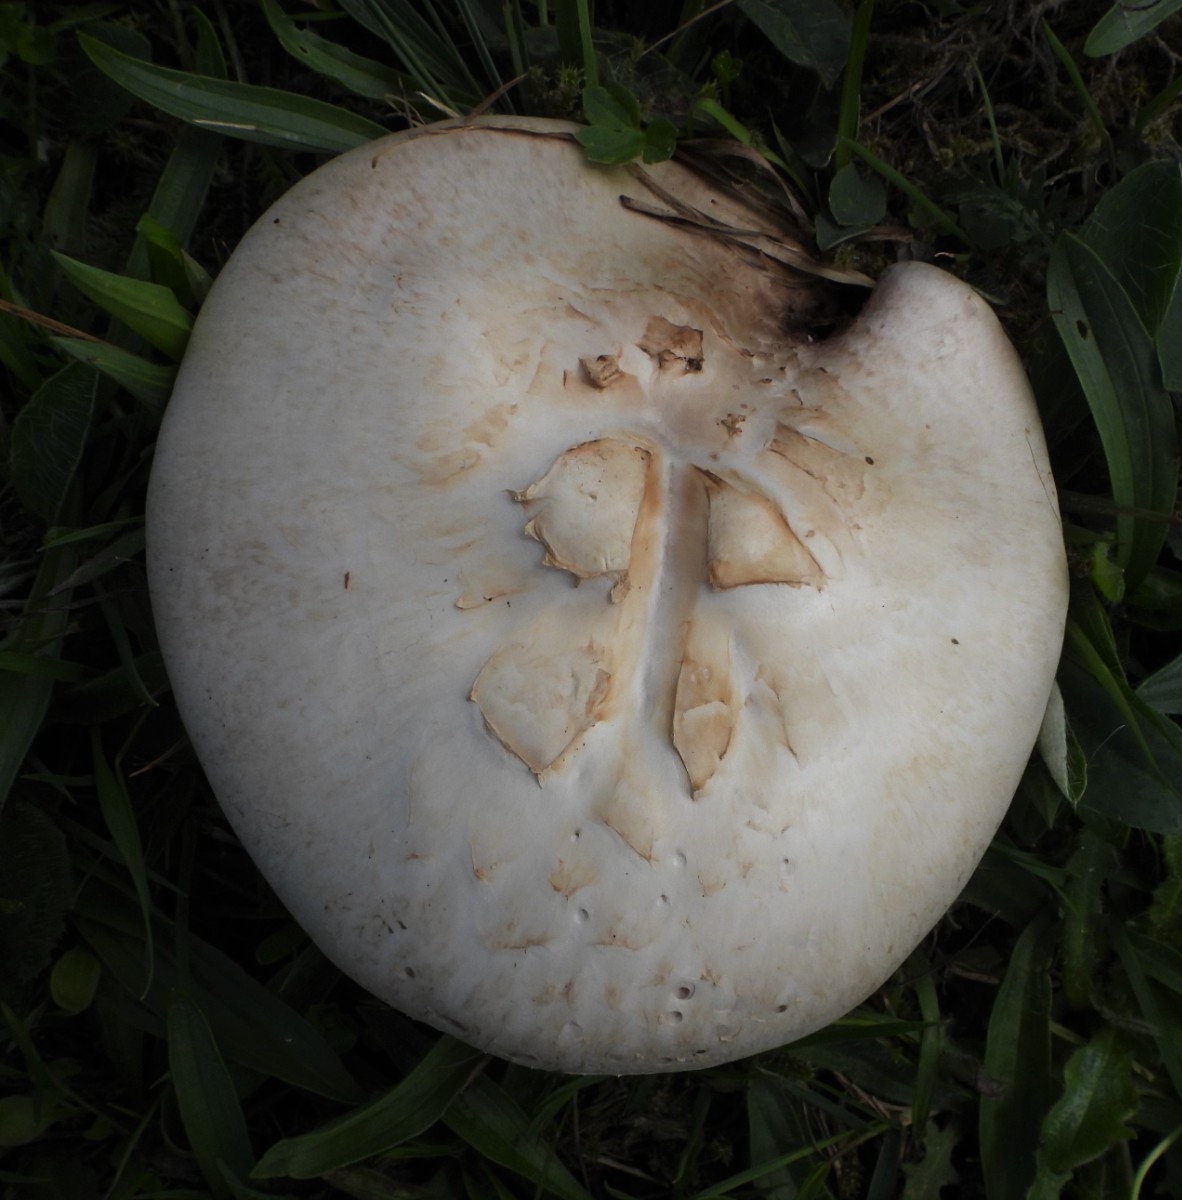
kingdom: Fungi
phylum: Basidiomycota
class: Agaricomycetes
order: Agaricales
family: Agaricaceae
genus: Agaricus
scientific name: Agaricus campestris
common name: mark-champignon
